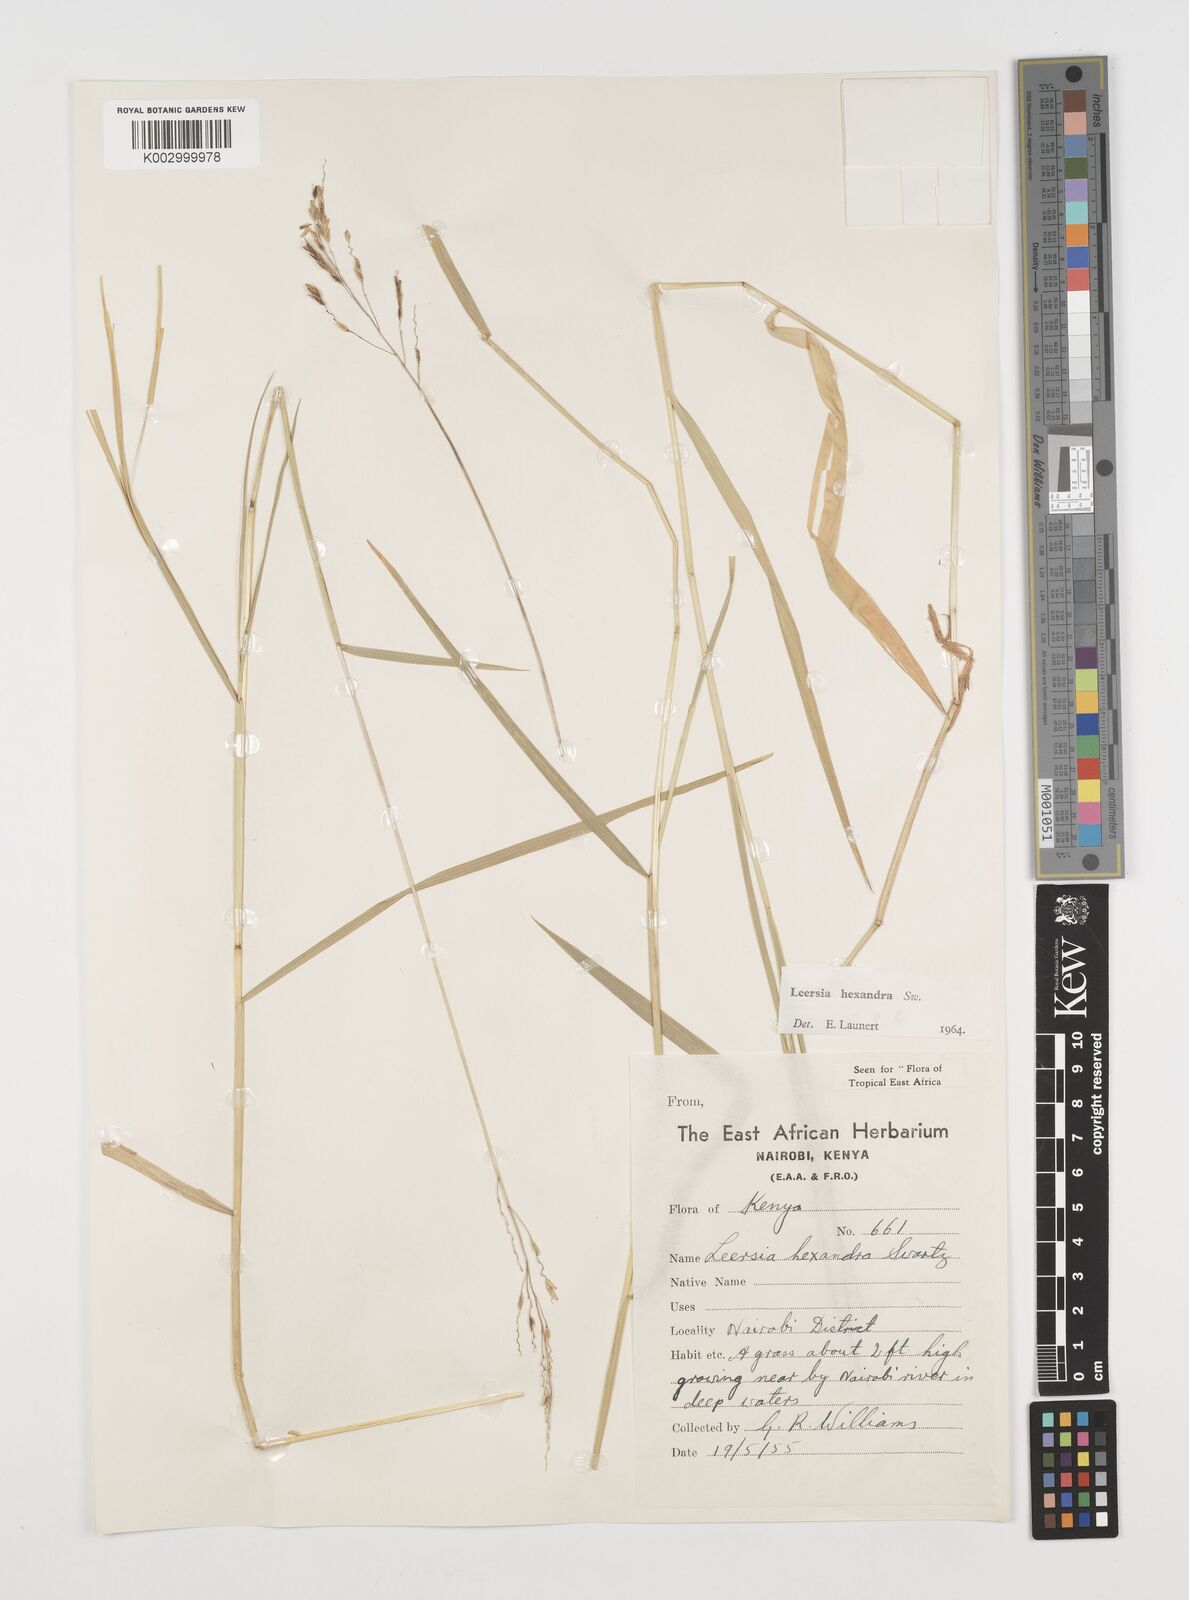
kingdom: Plantae
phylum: Tracheophyta
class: Liliopsida
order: Poales
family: Poaceae
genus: Leersia
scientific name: Leersia hexandra
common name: Southern cut grass
